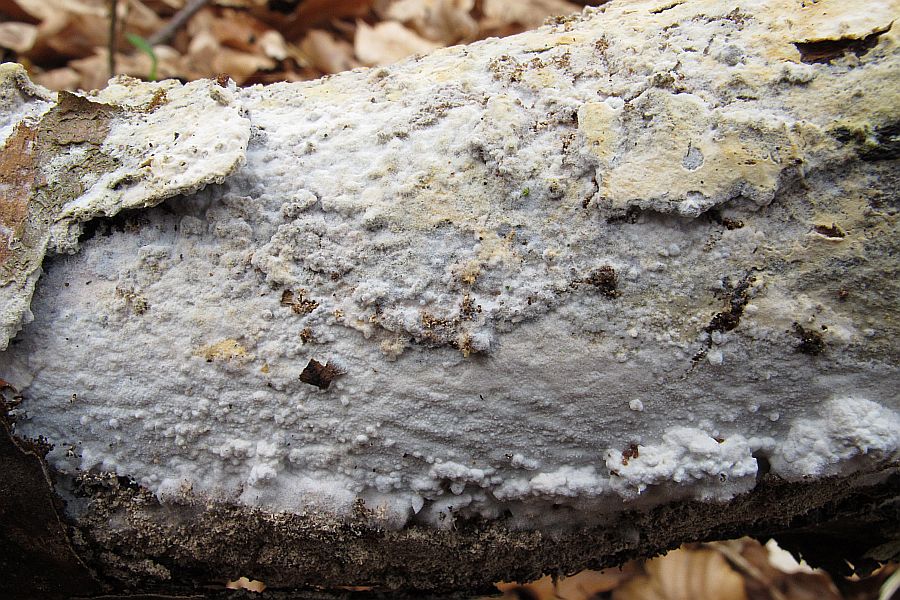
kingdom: Fungi
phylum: Basidiomycota
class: Agaricomycetes
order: Polyporales
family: Phanerochaetaceae
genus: Phanerochaete
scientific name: Phanerochaete sordida
